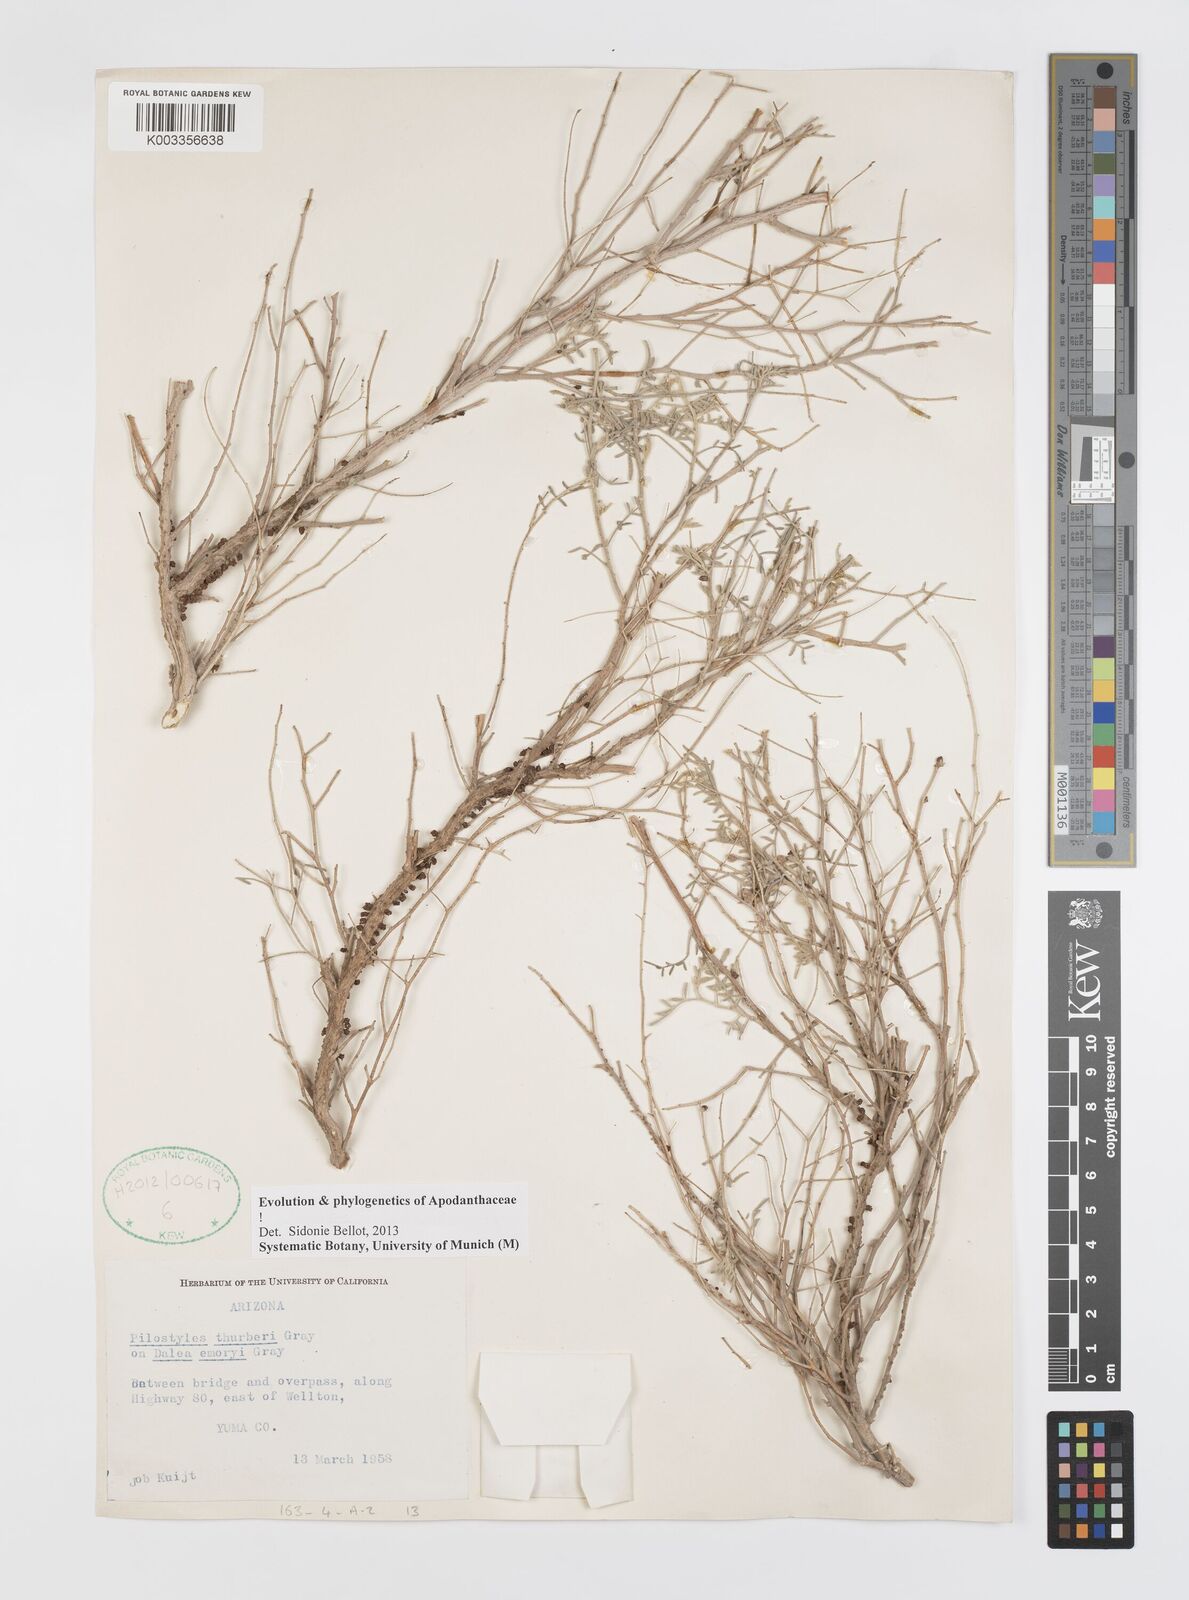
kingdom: Plantae
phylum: Tracheophyta
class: Magnoliopsida
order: Cucurbitales
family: Apodanthaceae
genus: Pilostyles
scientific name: Pilostyles thurberi
